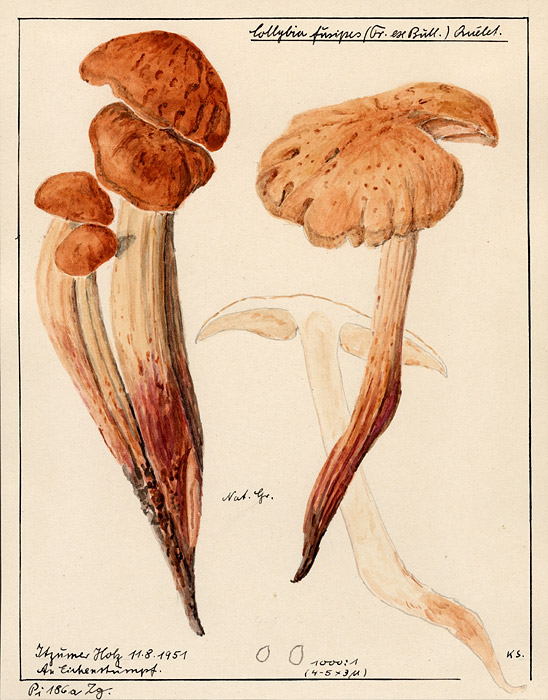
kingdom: Plantae
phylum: Tracheophyta
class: Magnoliopsida
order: Fagales
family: Fagaceae
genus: Quercus
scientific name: Quercus
